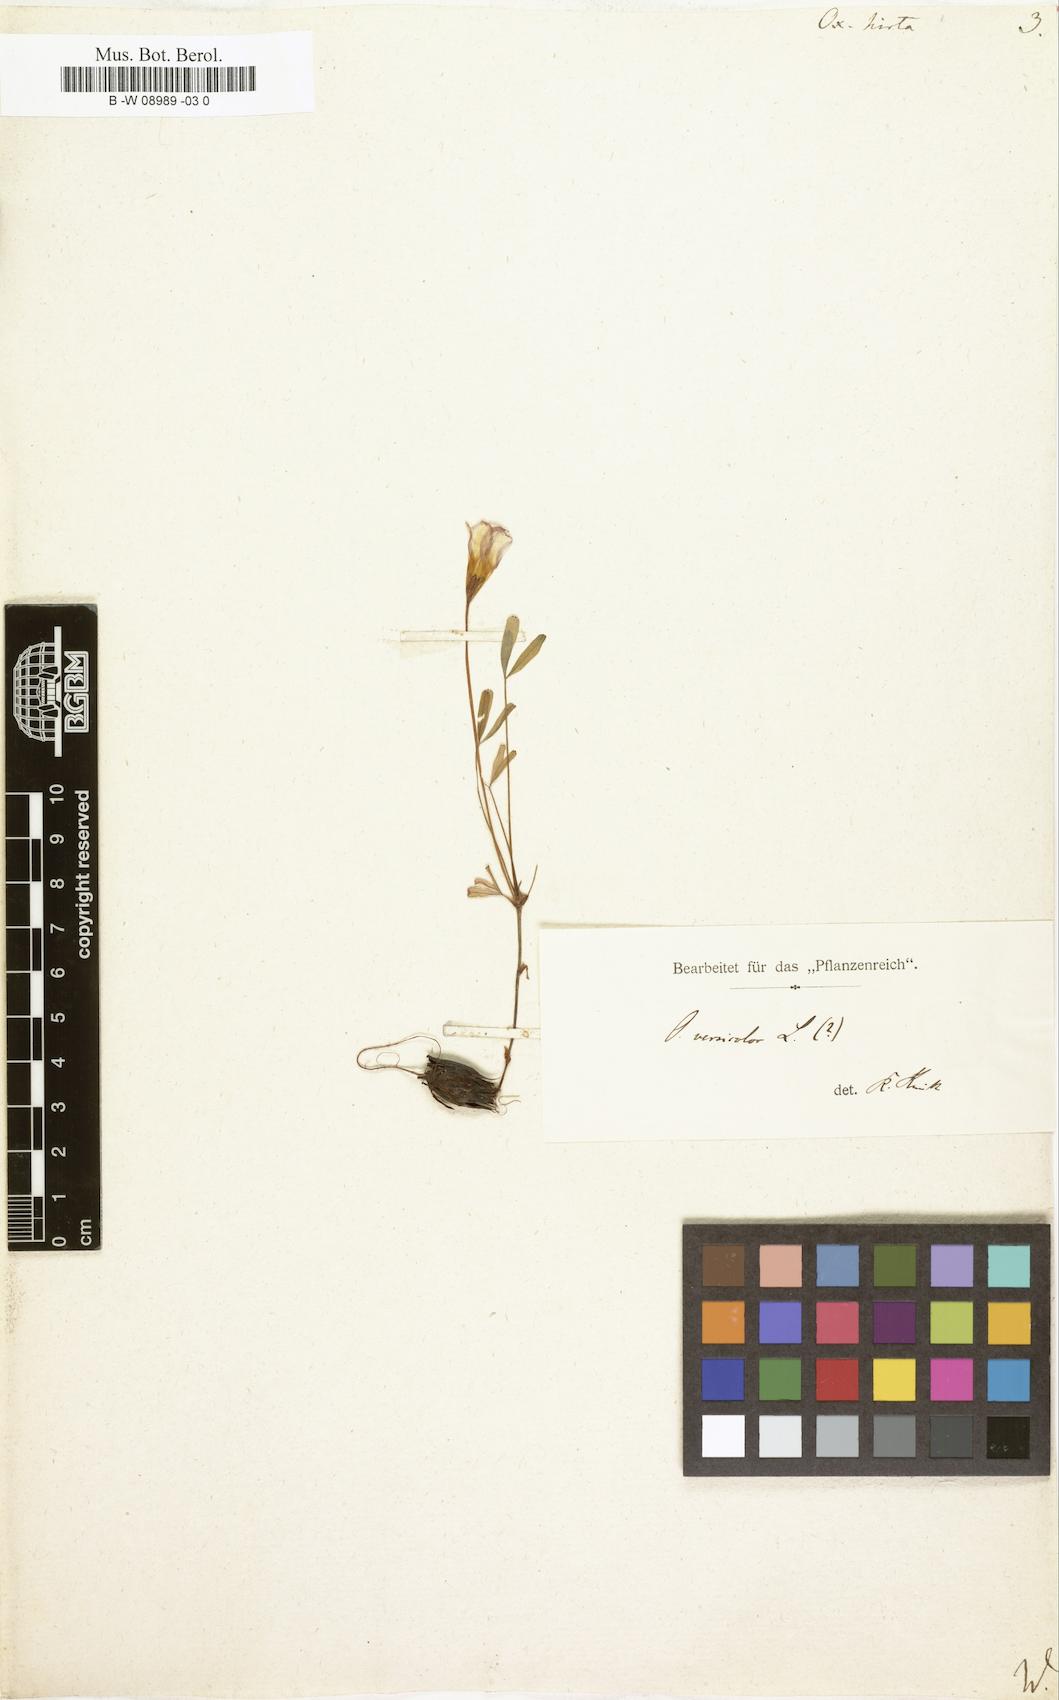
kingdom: Plantae
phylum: Tracheophyta
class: Magnoliopsida
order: Oxalidales
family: Oxalidaceae
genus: Oxalis
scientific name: Oxalis hirta
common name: Tropical woodsorrel
